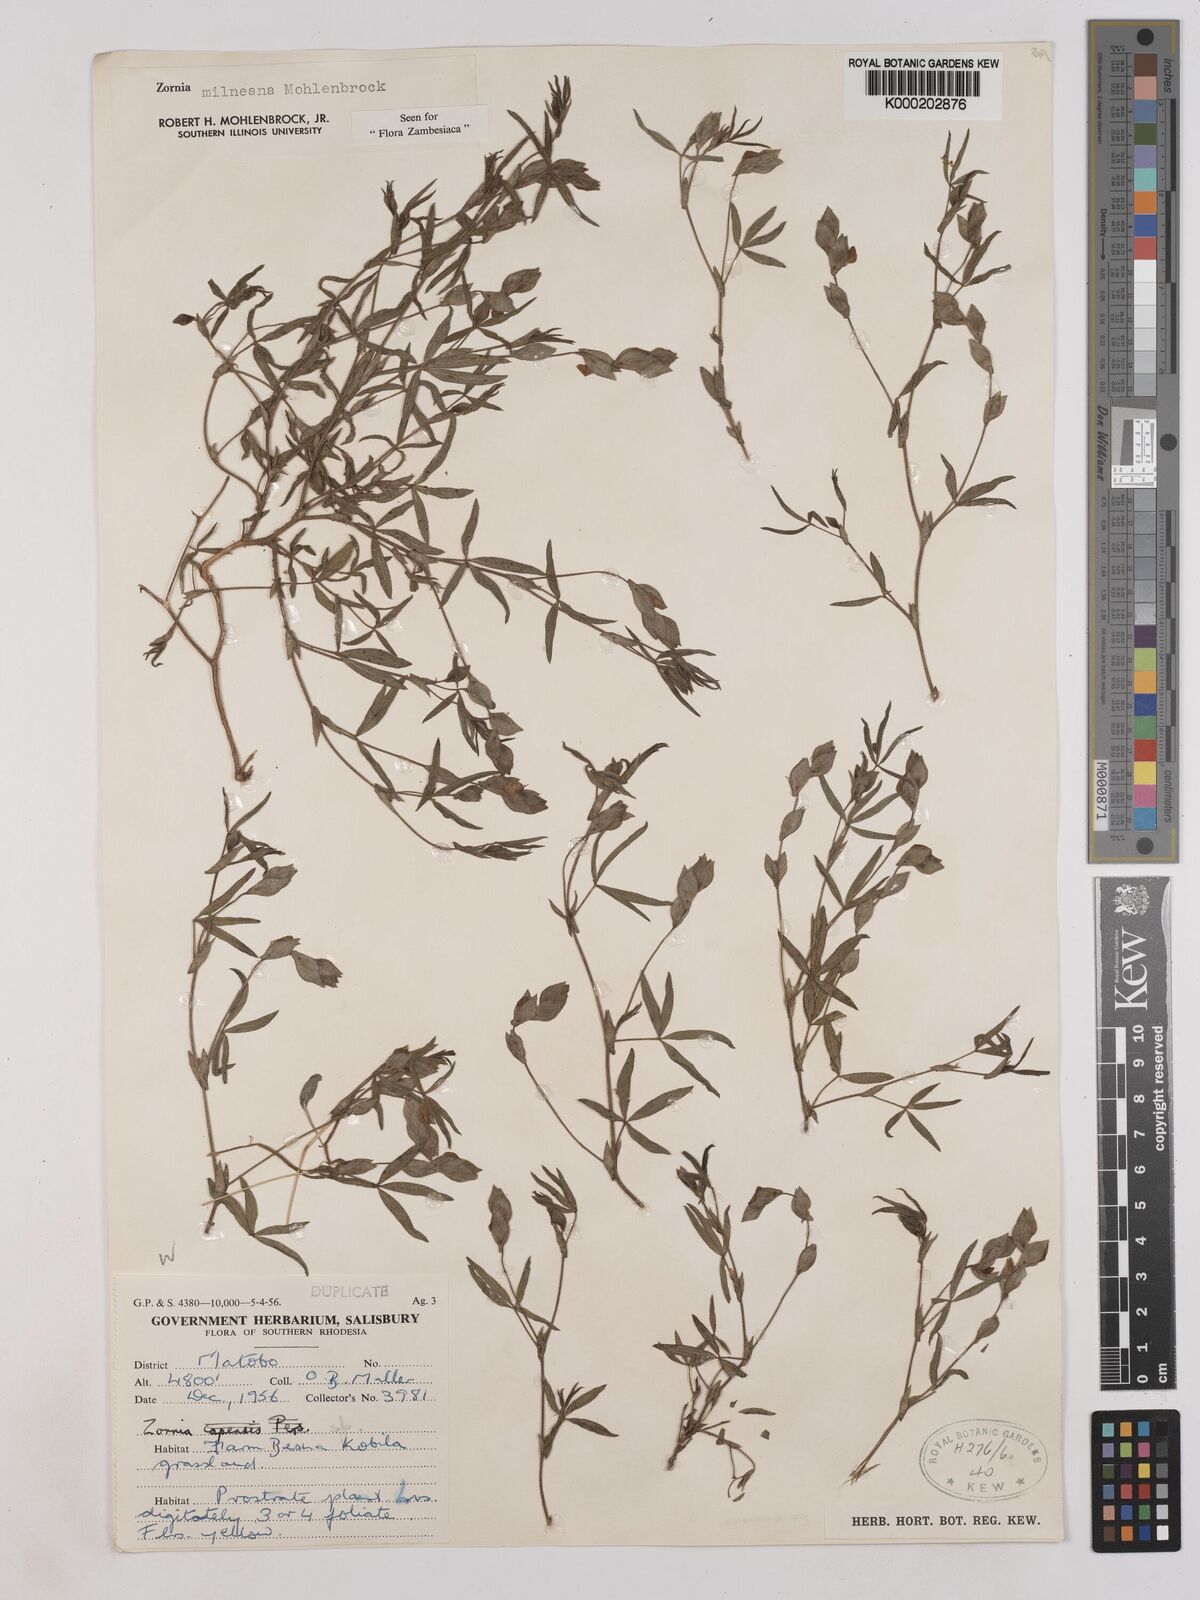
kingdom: Plantae
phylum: Tracheophyta
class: Magnoliopsida
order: Fabales
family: Fabaceae
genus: Zornia
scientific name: Zornia milneana
